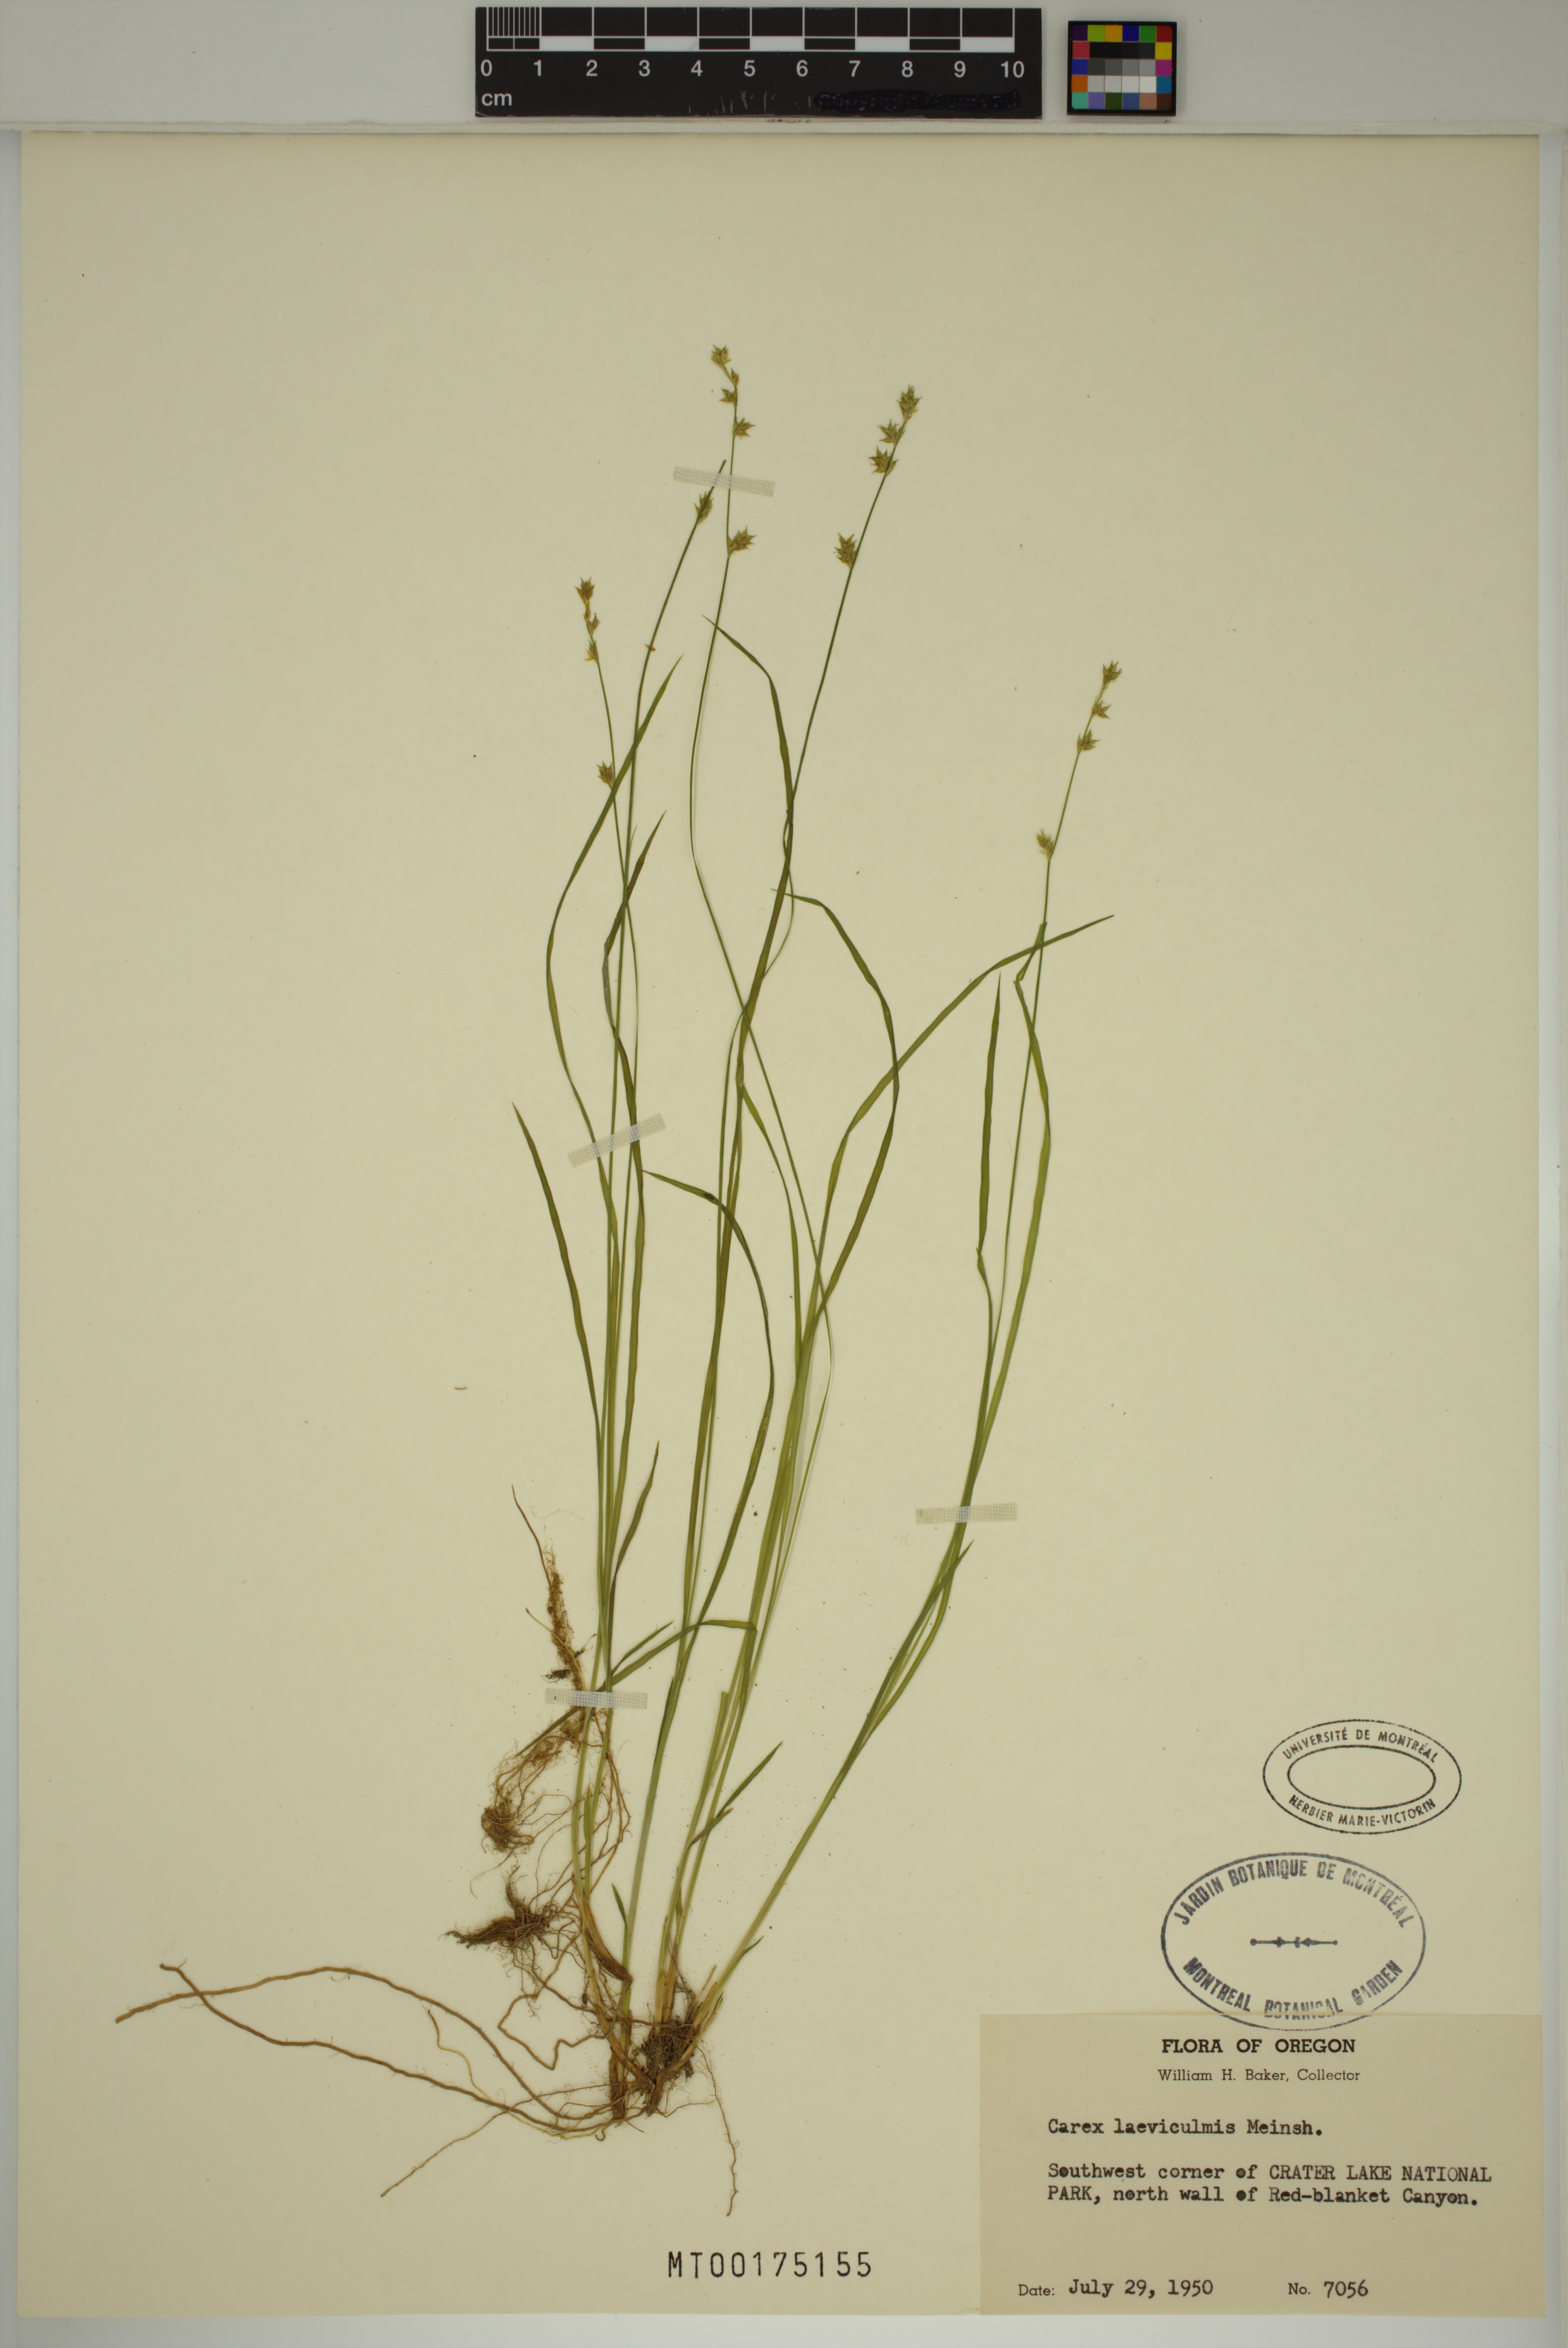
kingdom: Plantae
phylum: Tracheophyta
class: Liliopsida
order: Poales
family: Cyperaceae
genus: Carex
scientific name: Carex laeviculmis
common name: Smooth sedge
